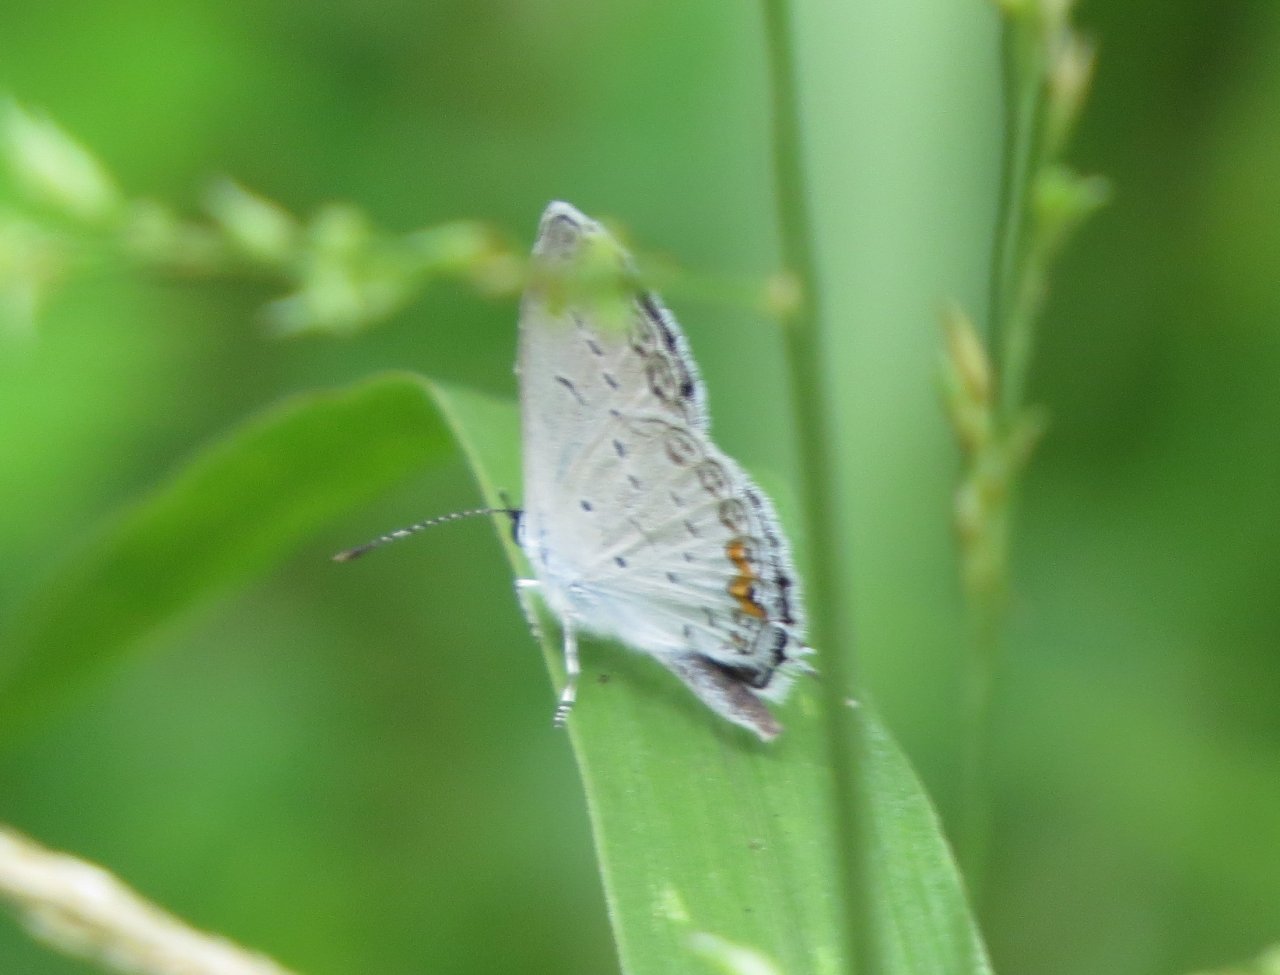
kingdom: Animalia
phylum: Arthropoda
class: Insecta
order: Lepidoptera
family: Lycaenidae
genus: Elkalyce
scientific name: Elkalyce comyntas
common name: Eastern Tailed-Blue
